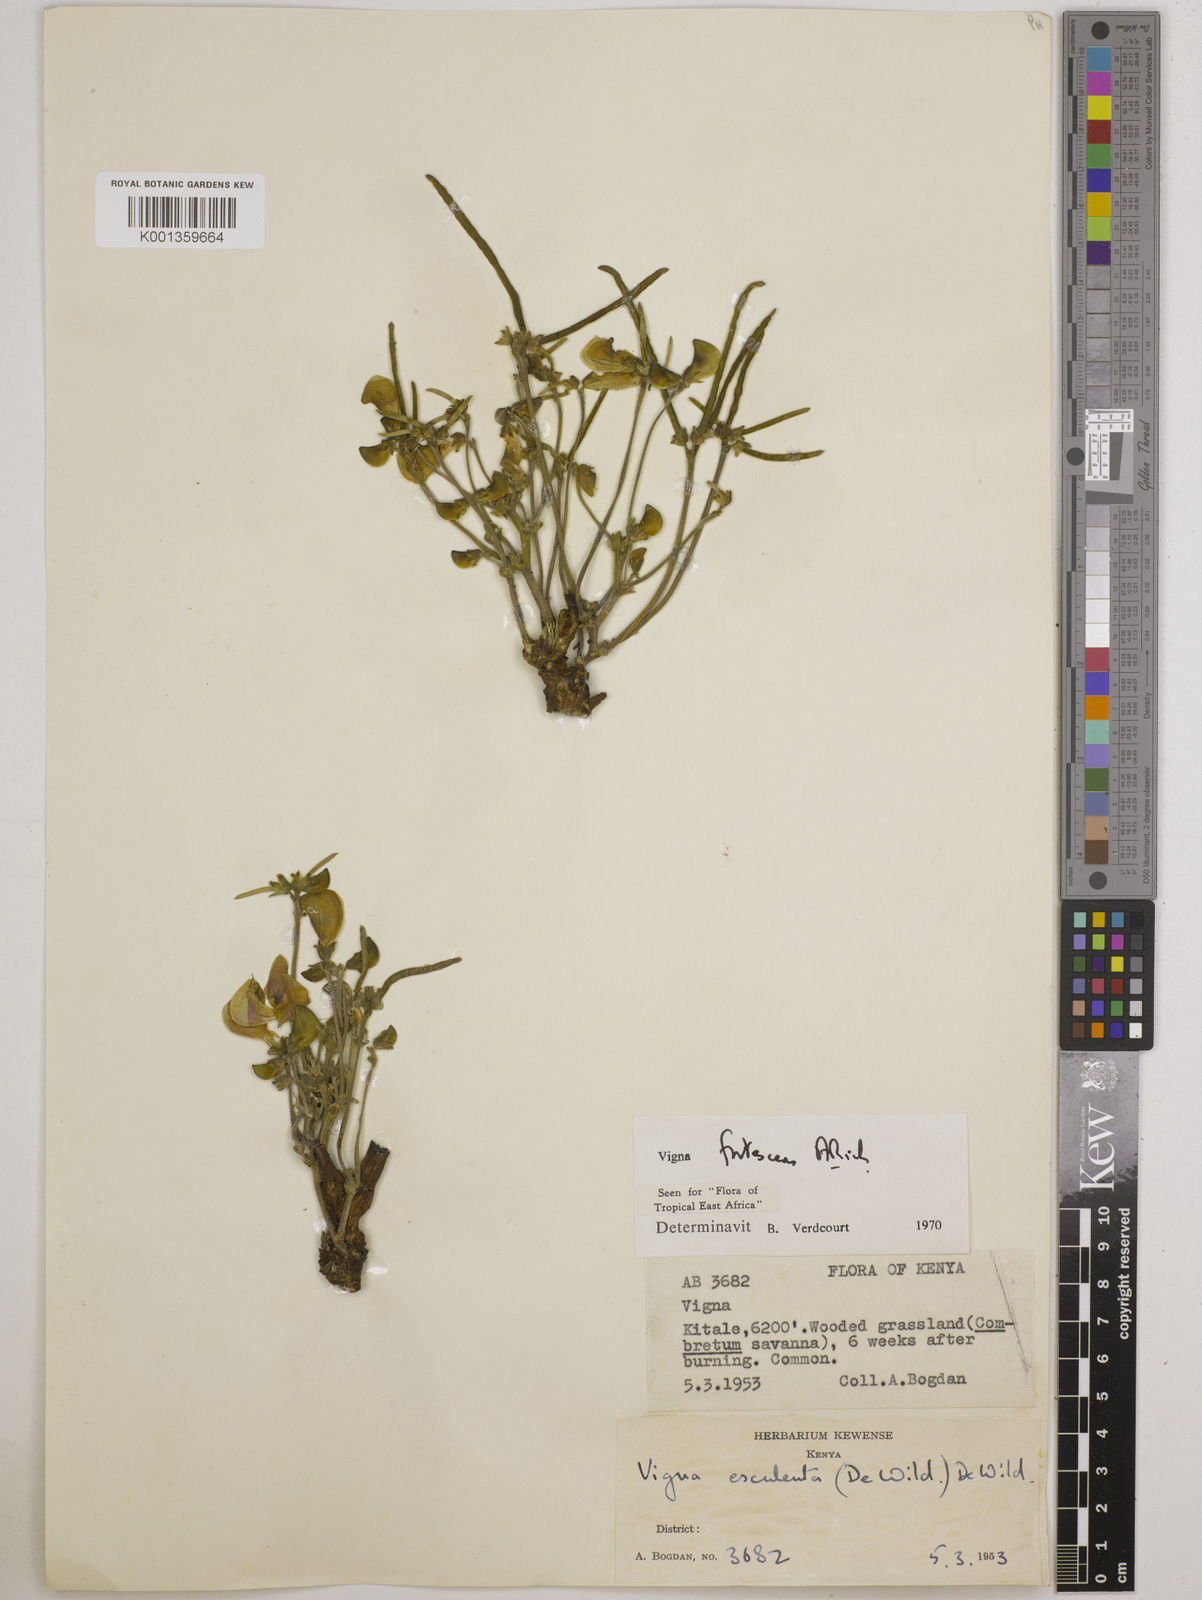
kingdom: Plantae
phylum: Tracheophyta
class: Magnoliopsida
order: Fabales
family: Fabaceae
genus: Vigna
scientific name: Vigna frutescens
